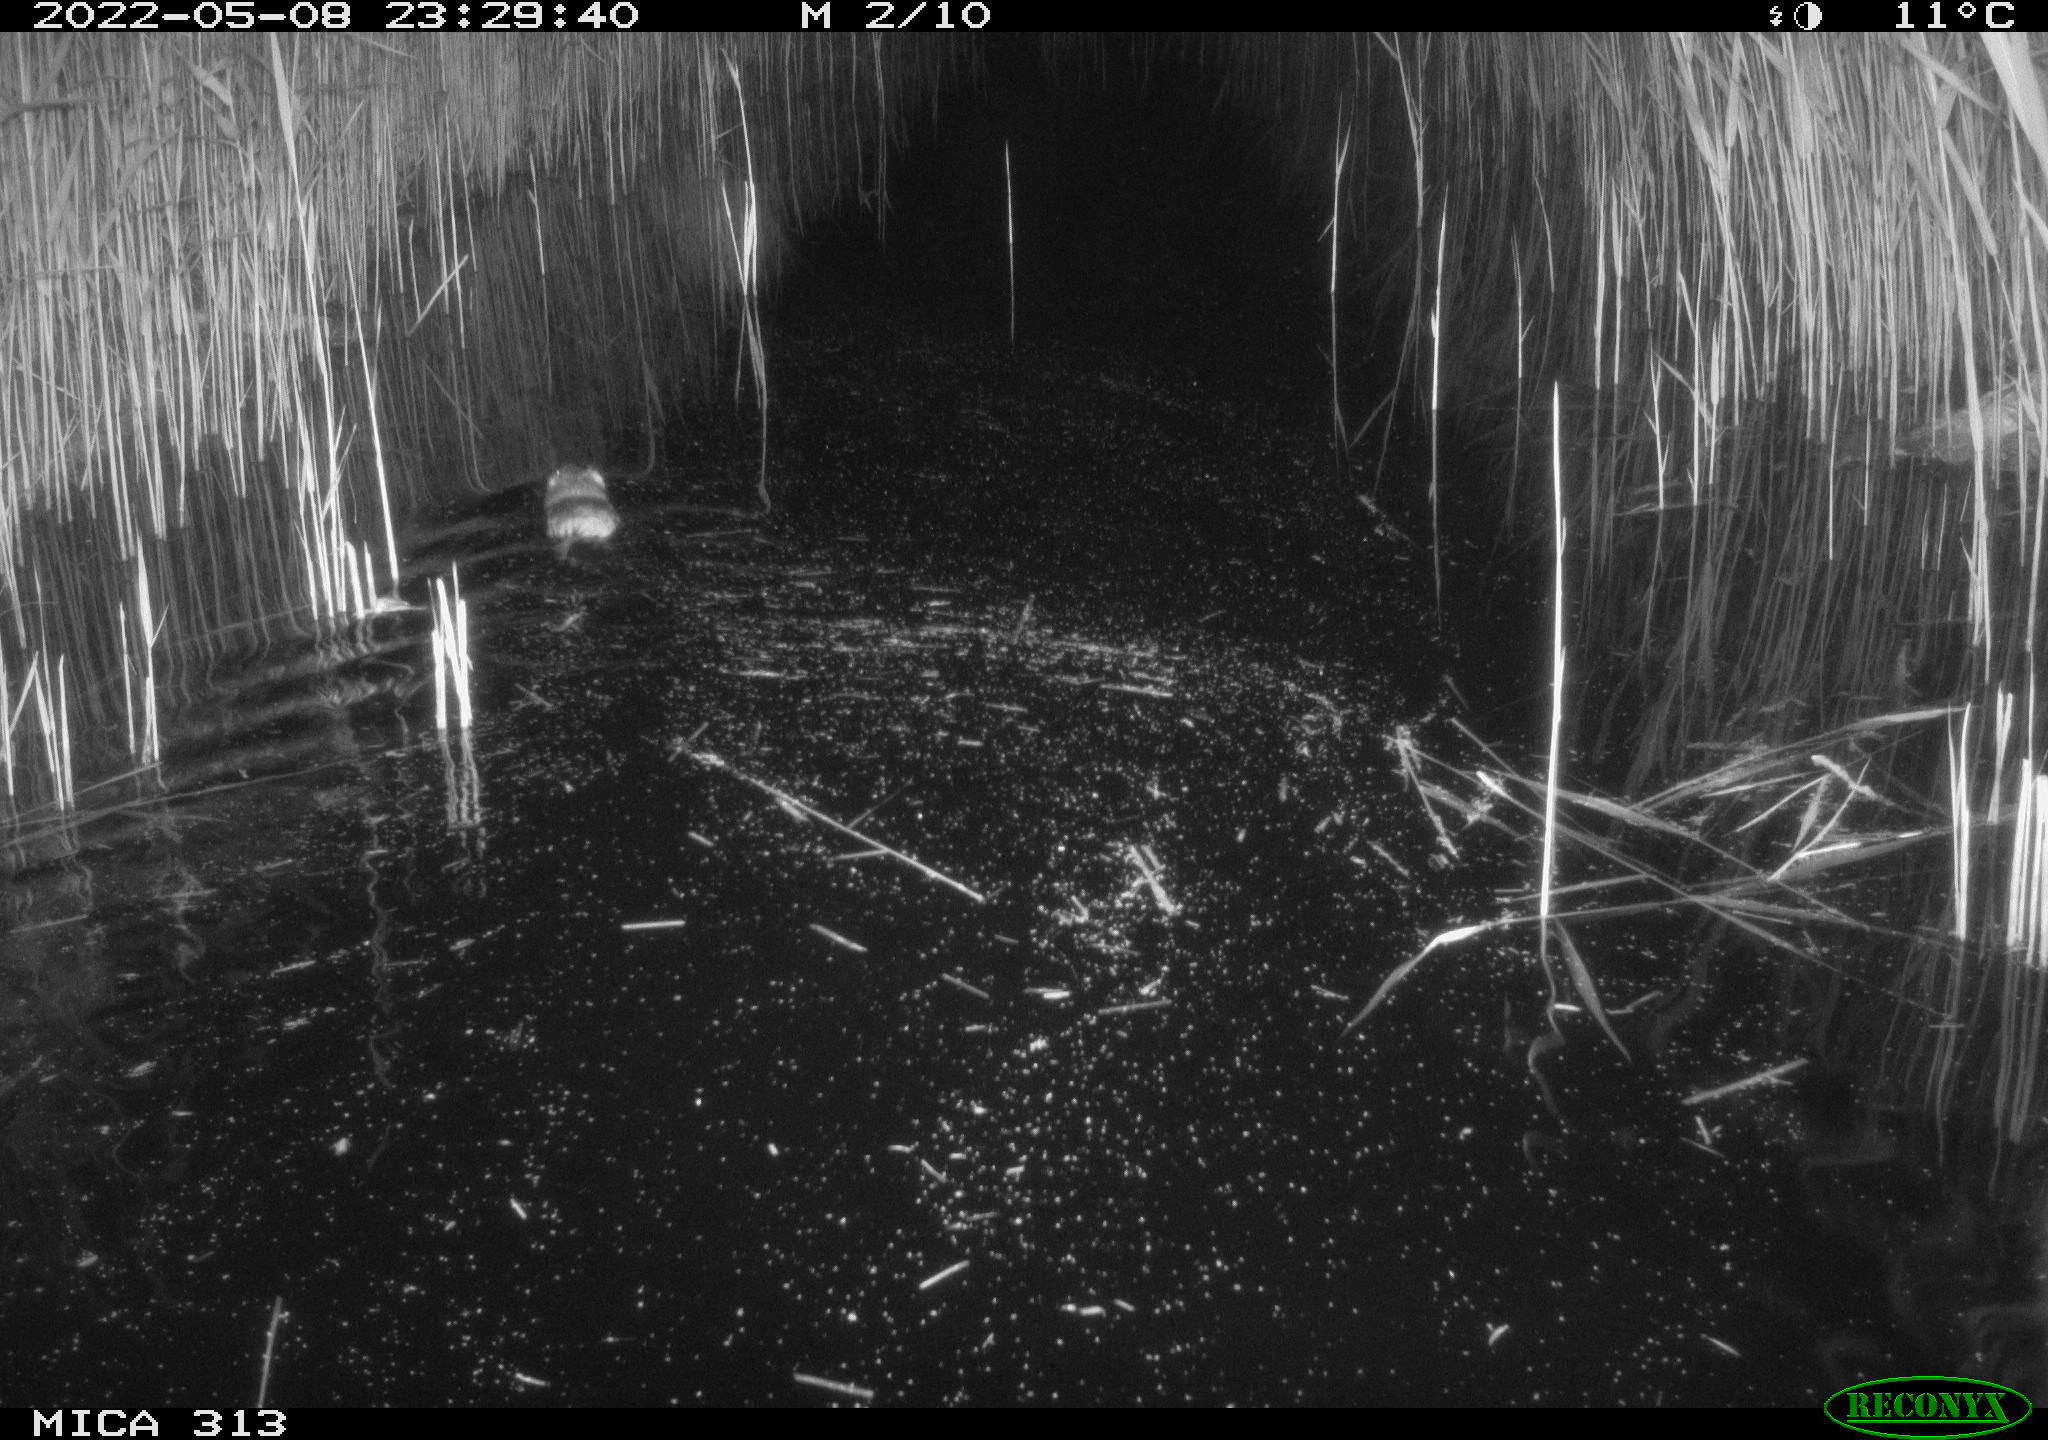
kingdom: Animalia
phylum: Chordata
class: Mammalia
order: Rodentia
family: Cricetidae
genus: Ondatra
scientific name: Ondatra zibethicus
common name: Muskrat
